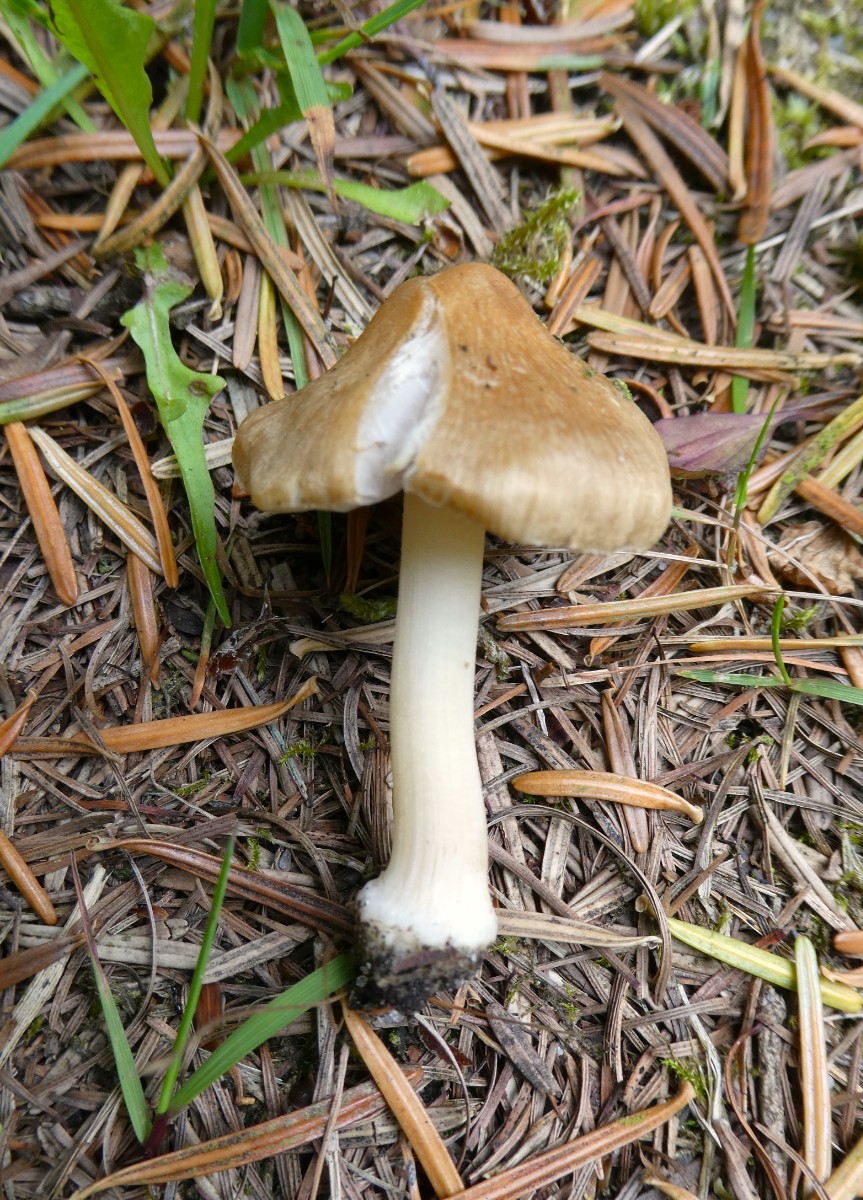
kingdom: Fungi
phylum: Basidiomycota
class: Agaricomycetes
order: Agaricales
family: Inocybaceae
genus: Inocybe
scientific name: Inocybe mixtilis
